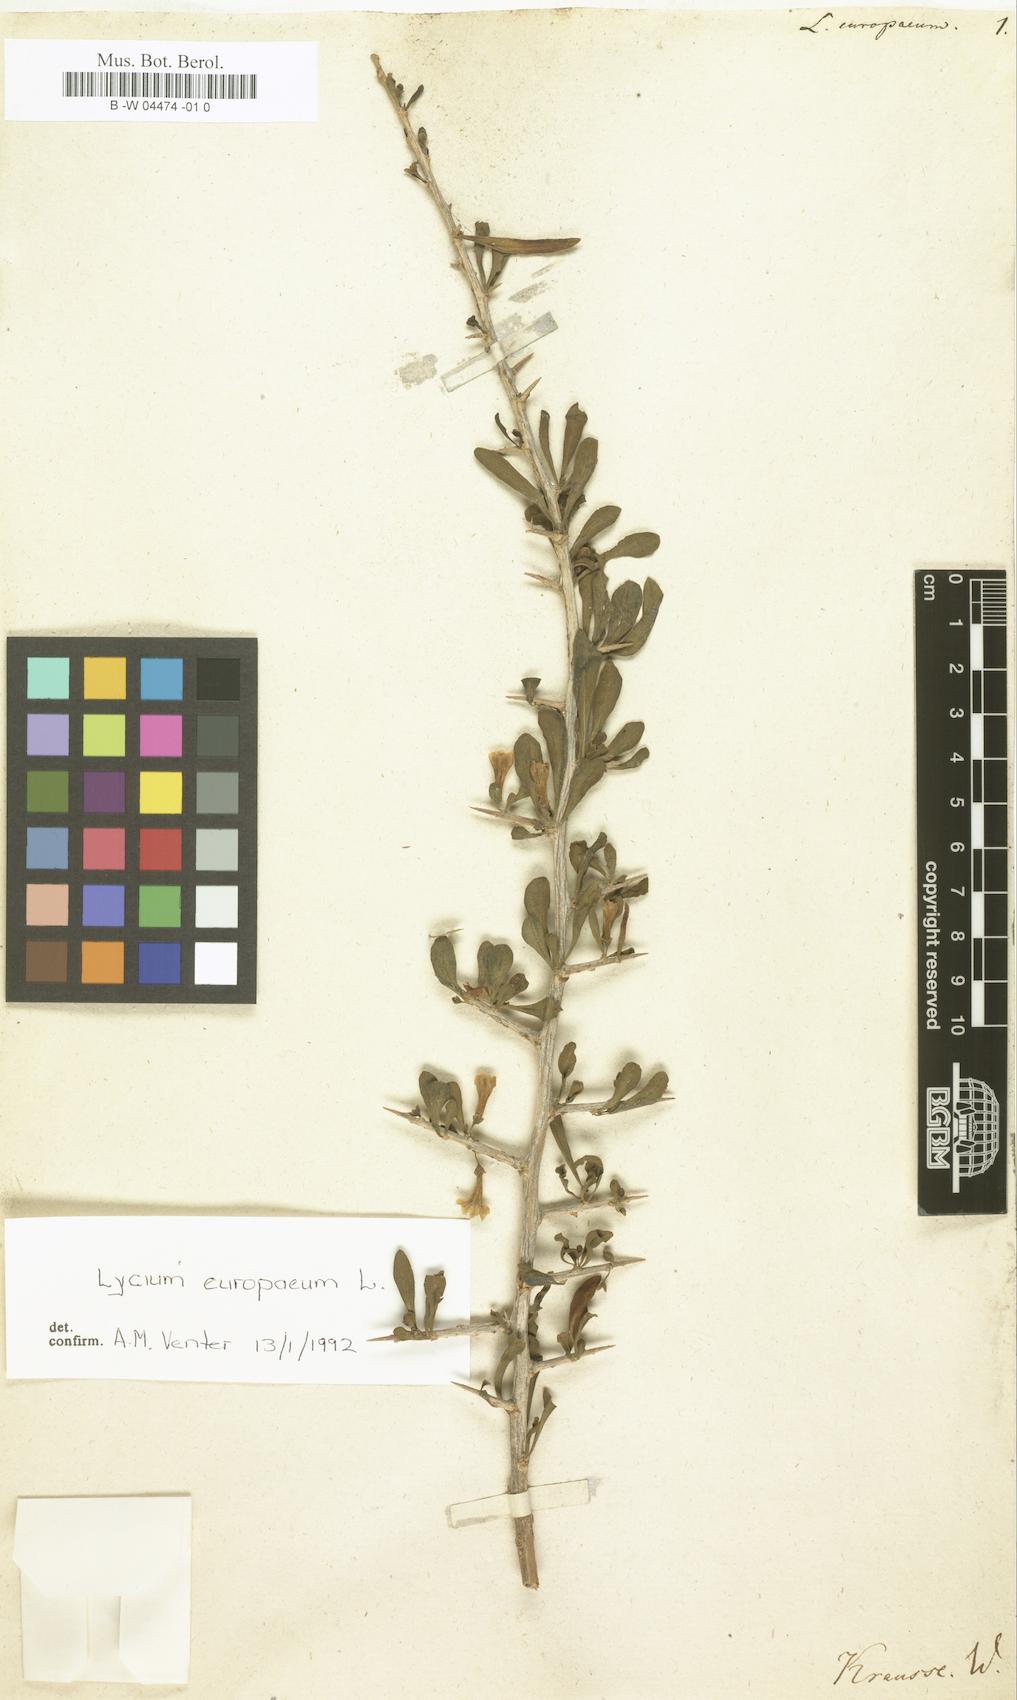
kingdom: Plantae
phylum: Tracheophyta
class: Magnoliopsida
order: Solanales
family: Solanaceae
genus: Lycium
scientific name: Lycium europaeum
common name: Boxthorn
